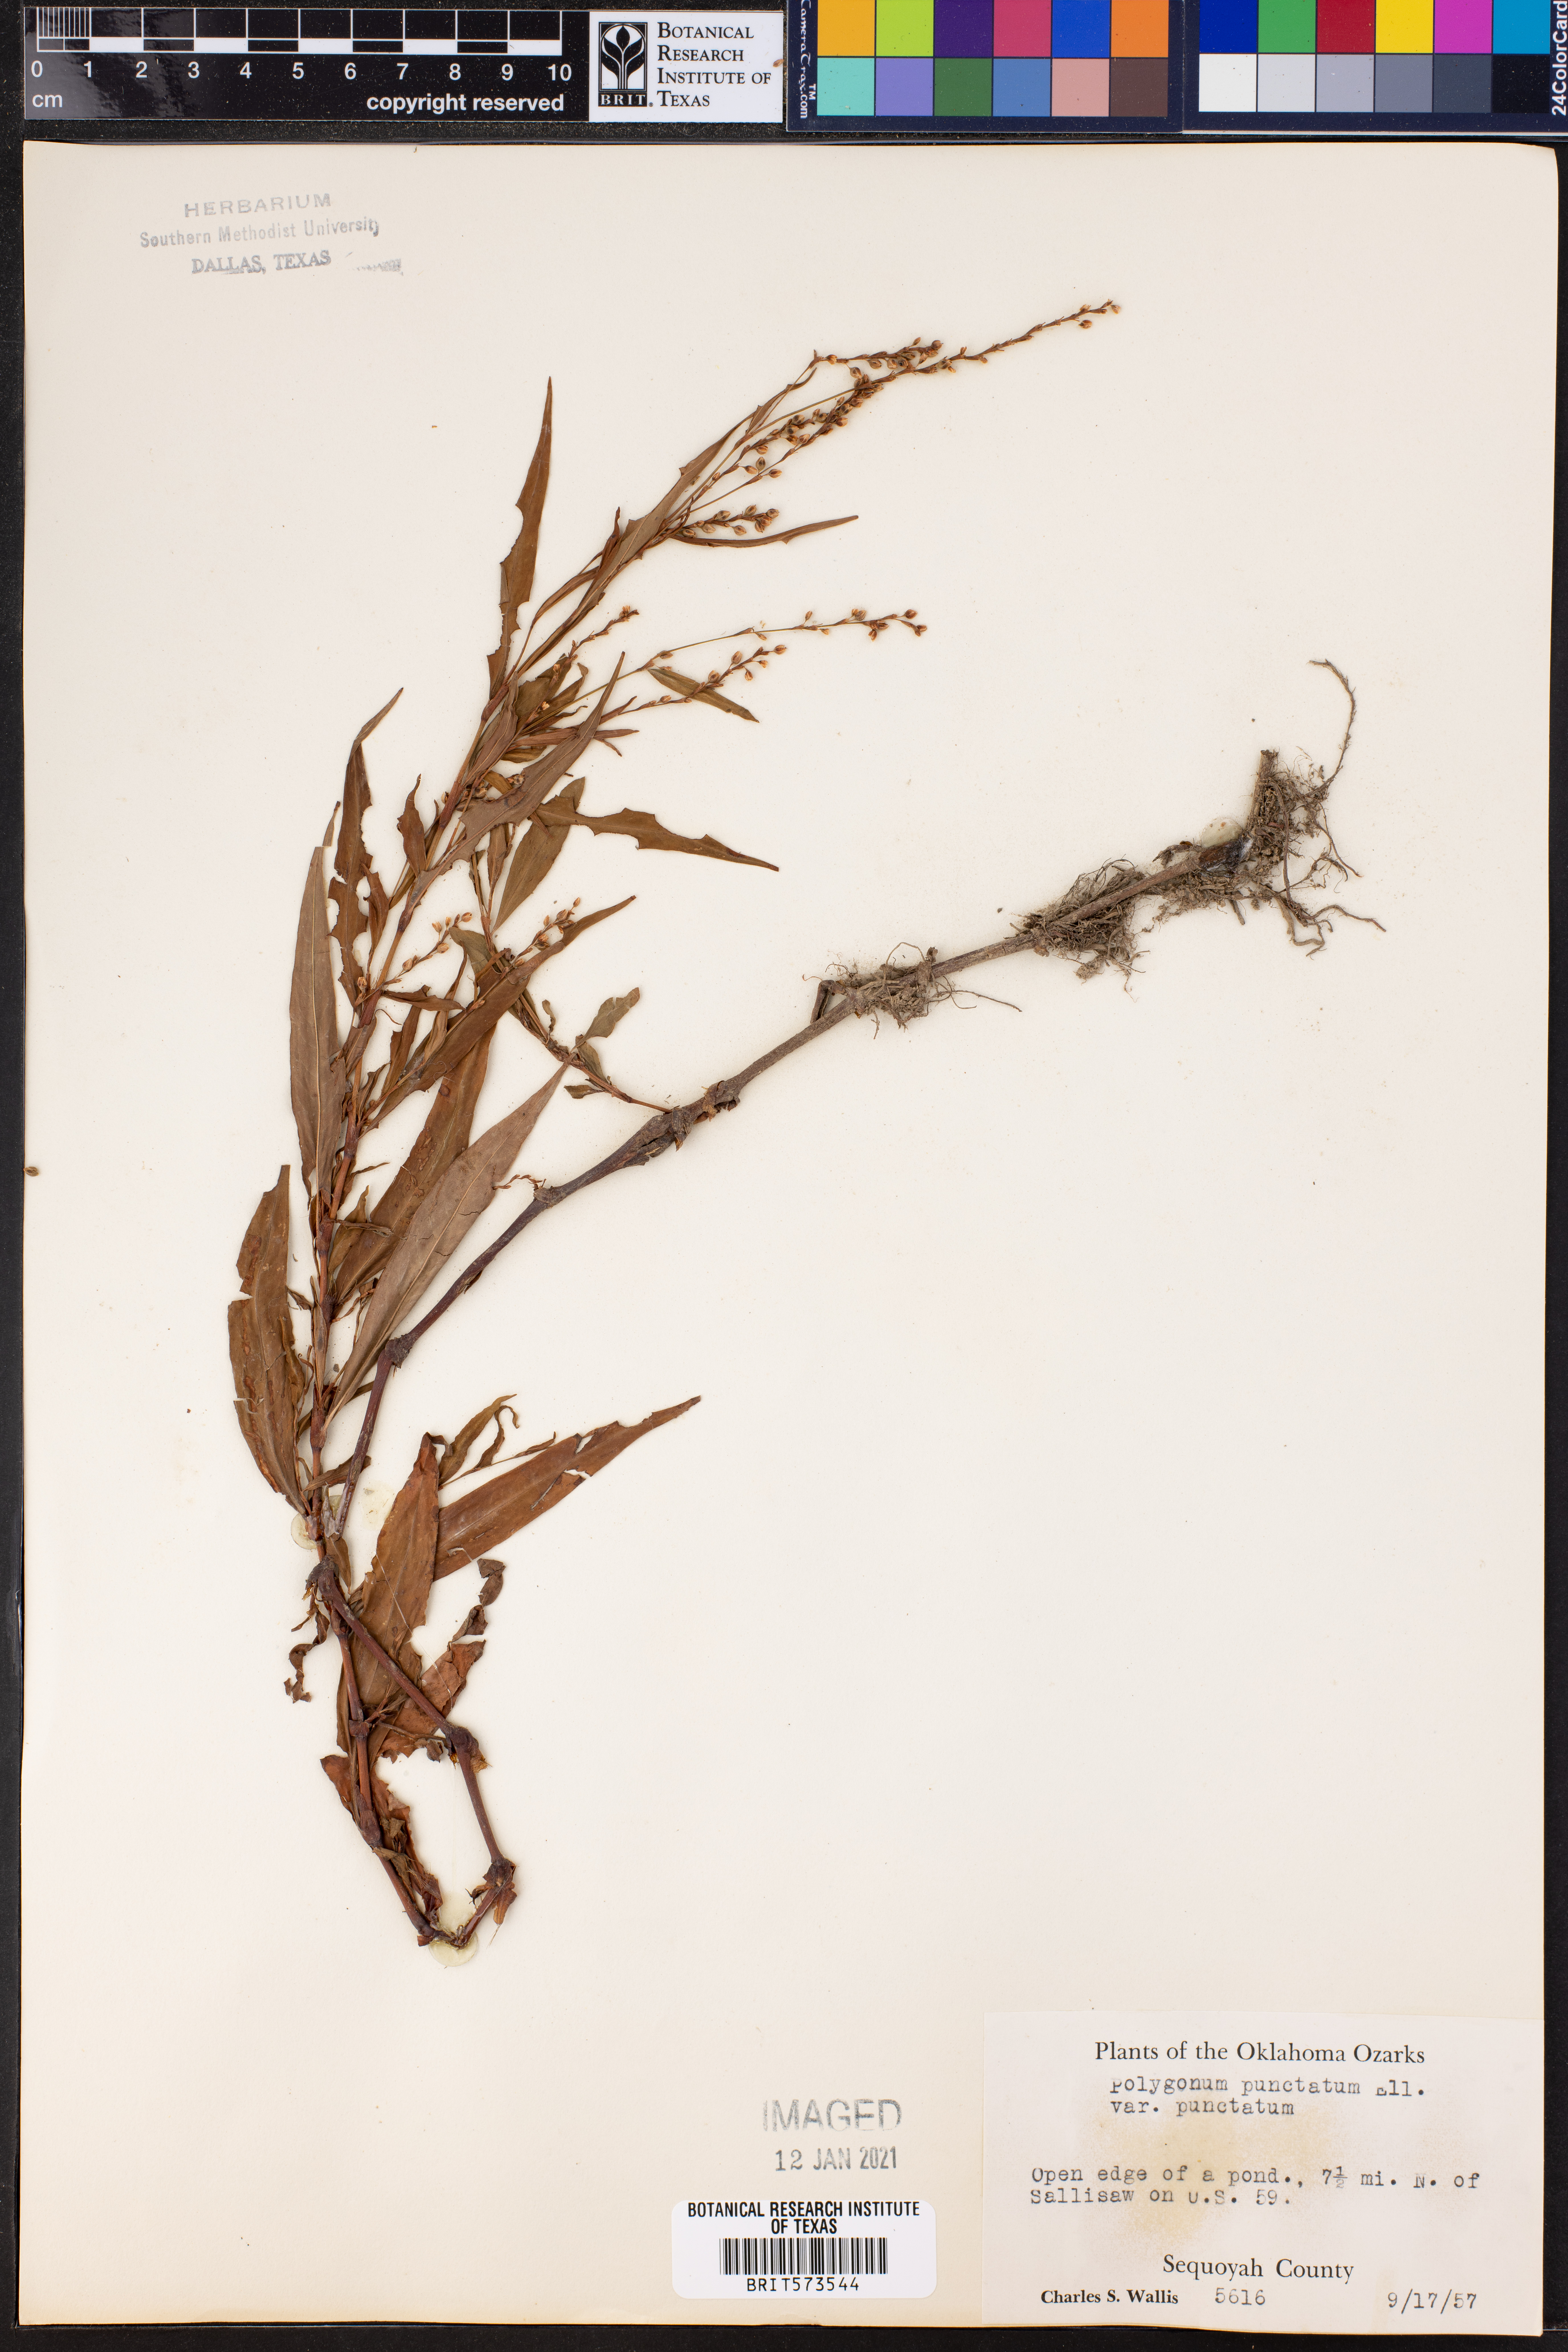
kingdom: Plantae
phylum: Tracheophyta
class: Magnoliopsida
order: Caryophyllales
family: Polygonaceae
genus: Persicaria
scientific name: Persicaria punctata
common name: Dotted smartweed
